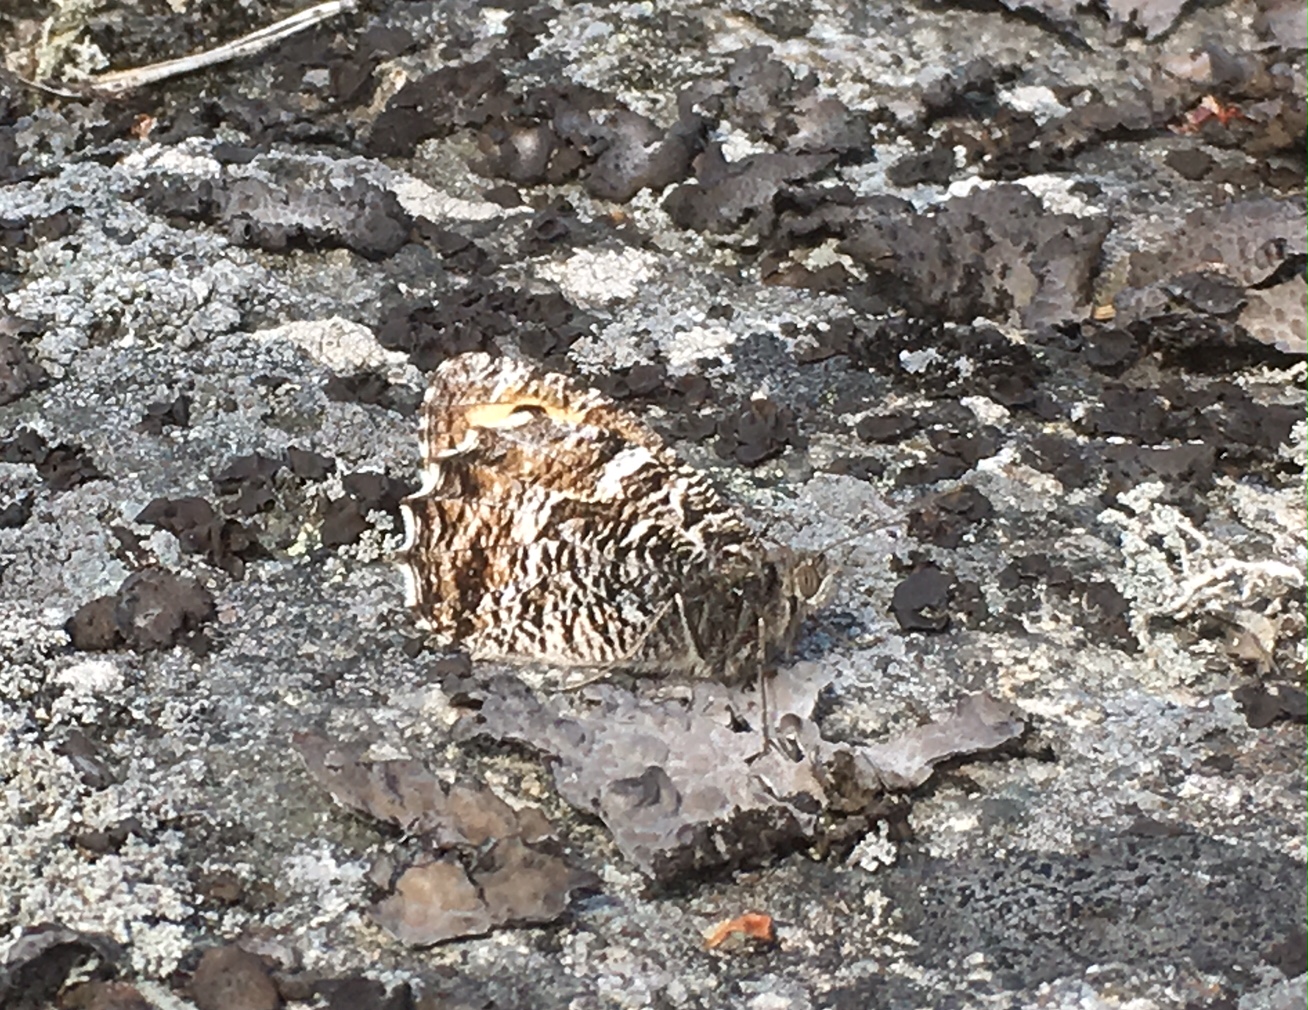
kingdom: Animalia
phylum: Arthropoda
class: Insecta
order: Lepidoptera
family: Nymphalidae
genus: Hipparchia
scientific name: Hipparchia semele
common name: Grayling
